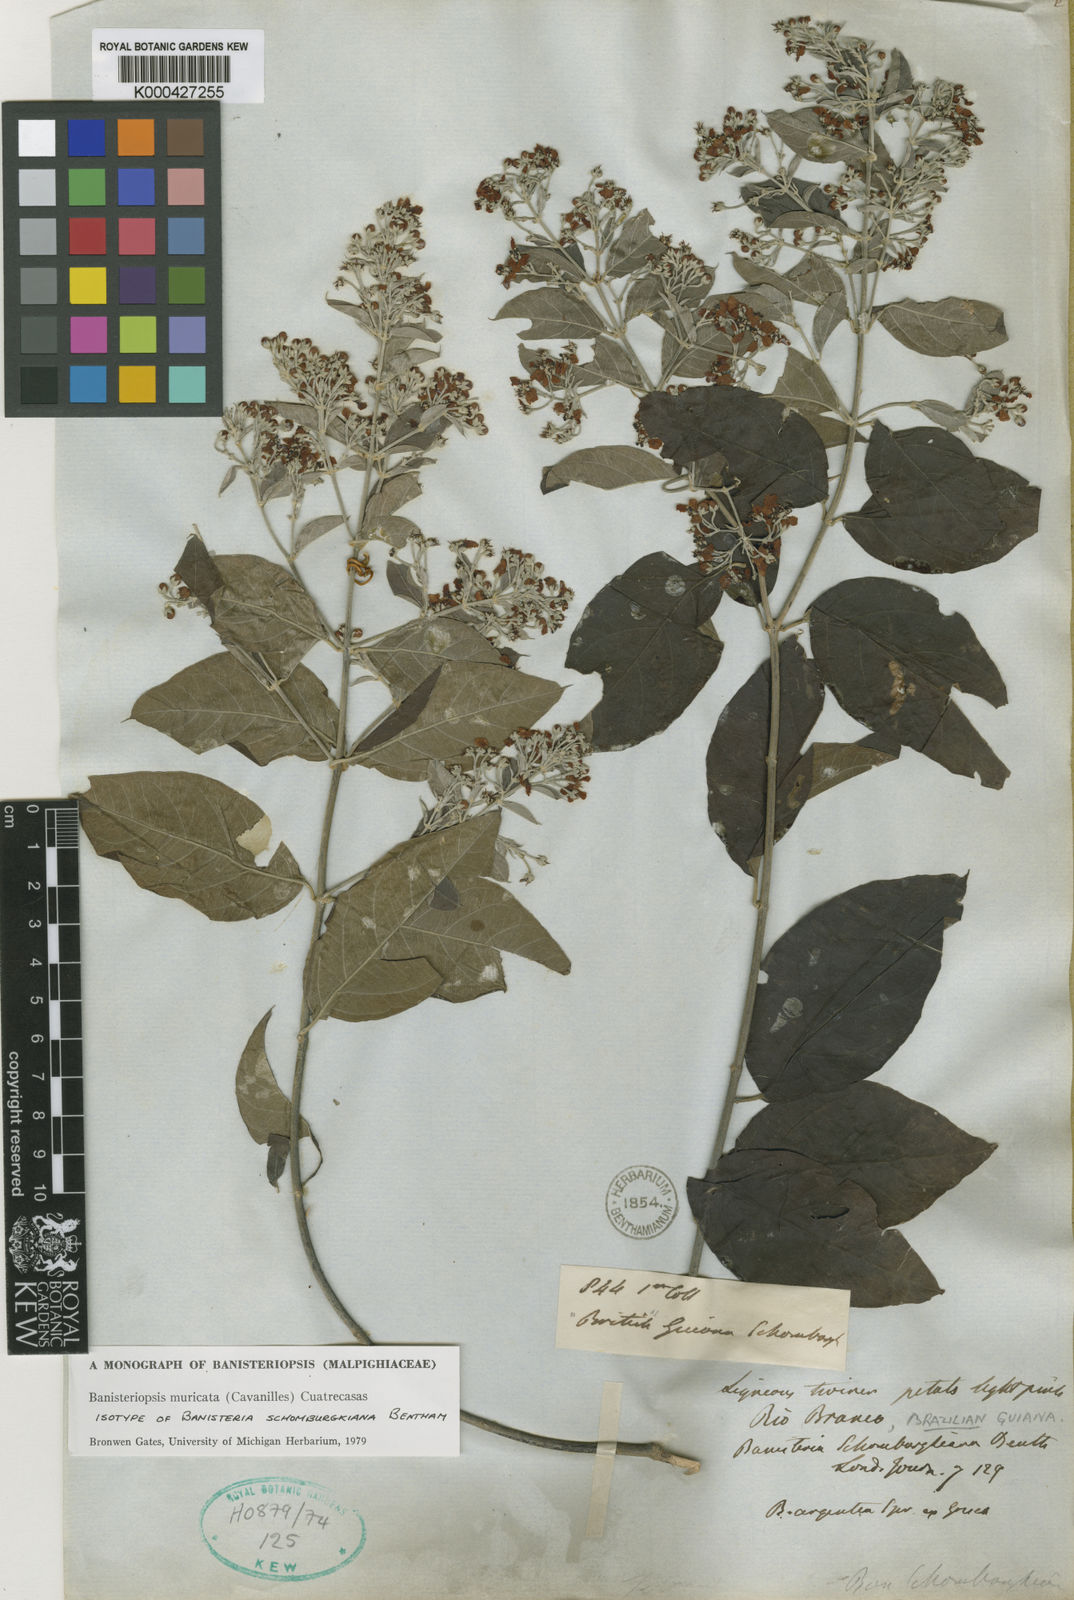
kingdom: Plantae
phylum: Tracheophyta
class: Magnoliopsida
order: Malpighiales
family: Malpighiaceae
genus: Banisteriopsis
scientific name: Banisteriopsis muricata
